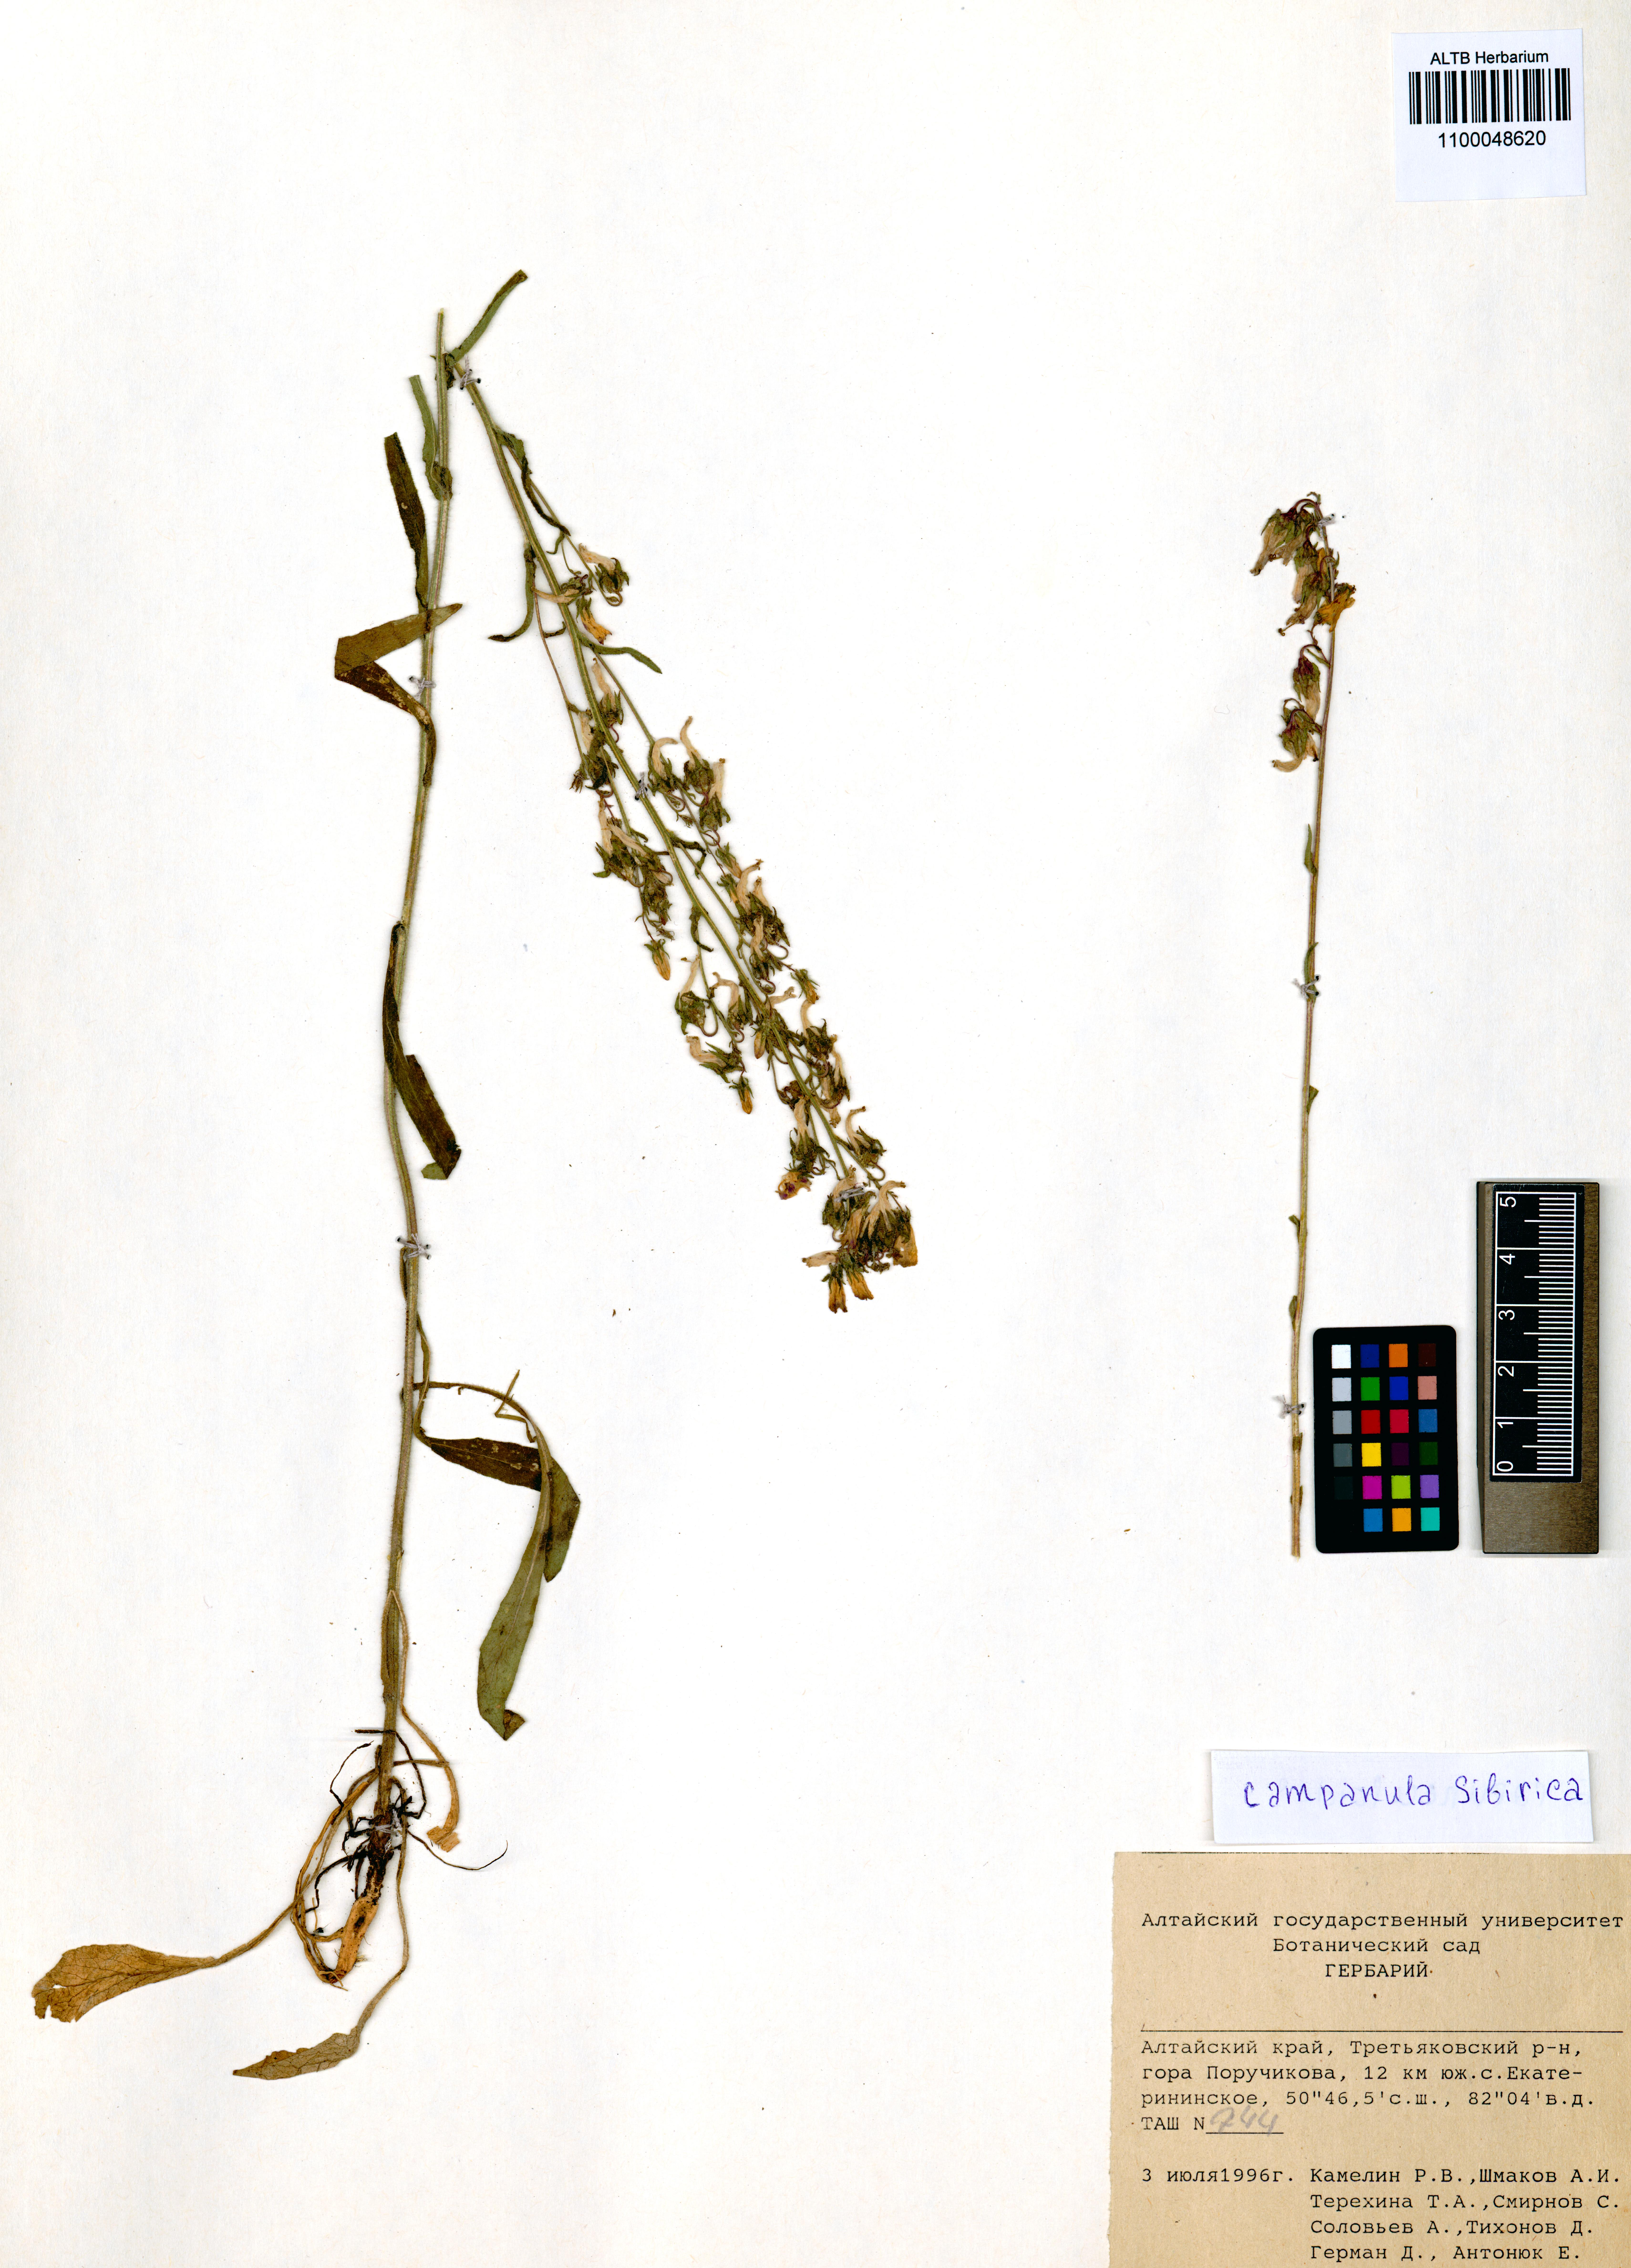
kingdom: Plantae
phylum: Tracheophyta
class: Magnoliopsida
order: Asterales
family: Campanulaceae
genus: Campanula
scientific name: Campanula sibirica
